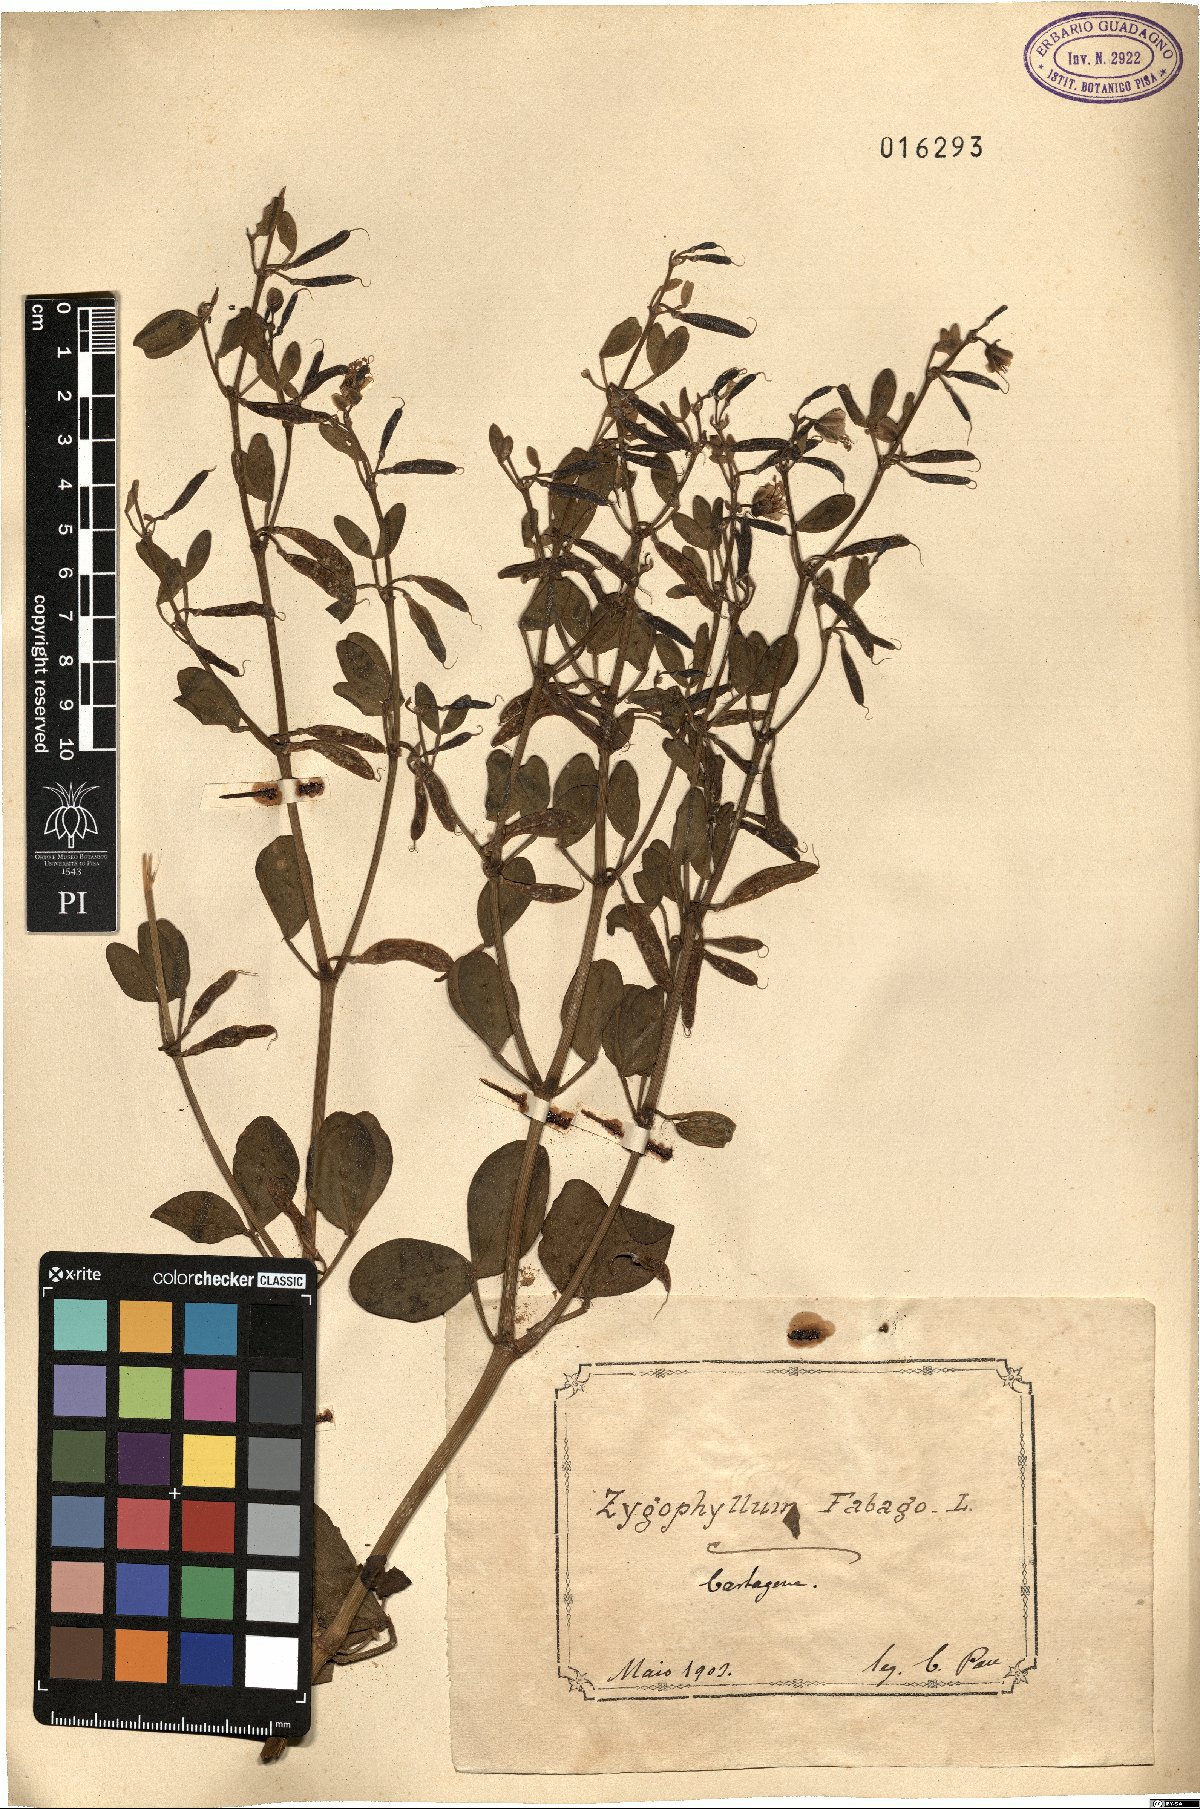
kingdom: Plantae
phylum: Tracheophyta
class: Magnoliopsida
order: Zygophyllales
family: Zygophyllaceae
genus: Zygophyllum
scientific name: Zygophyllum fabago
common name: Syrian beancaper
